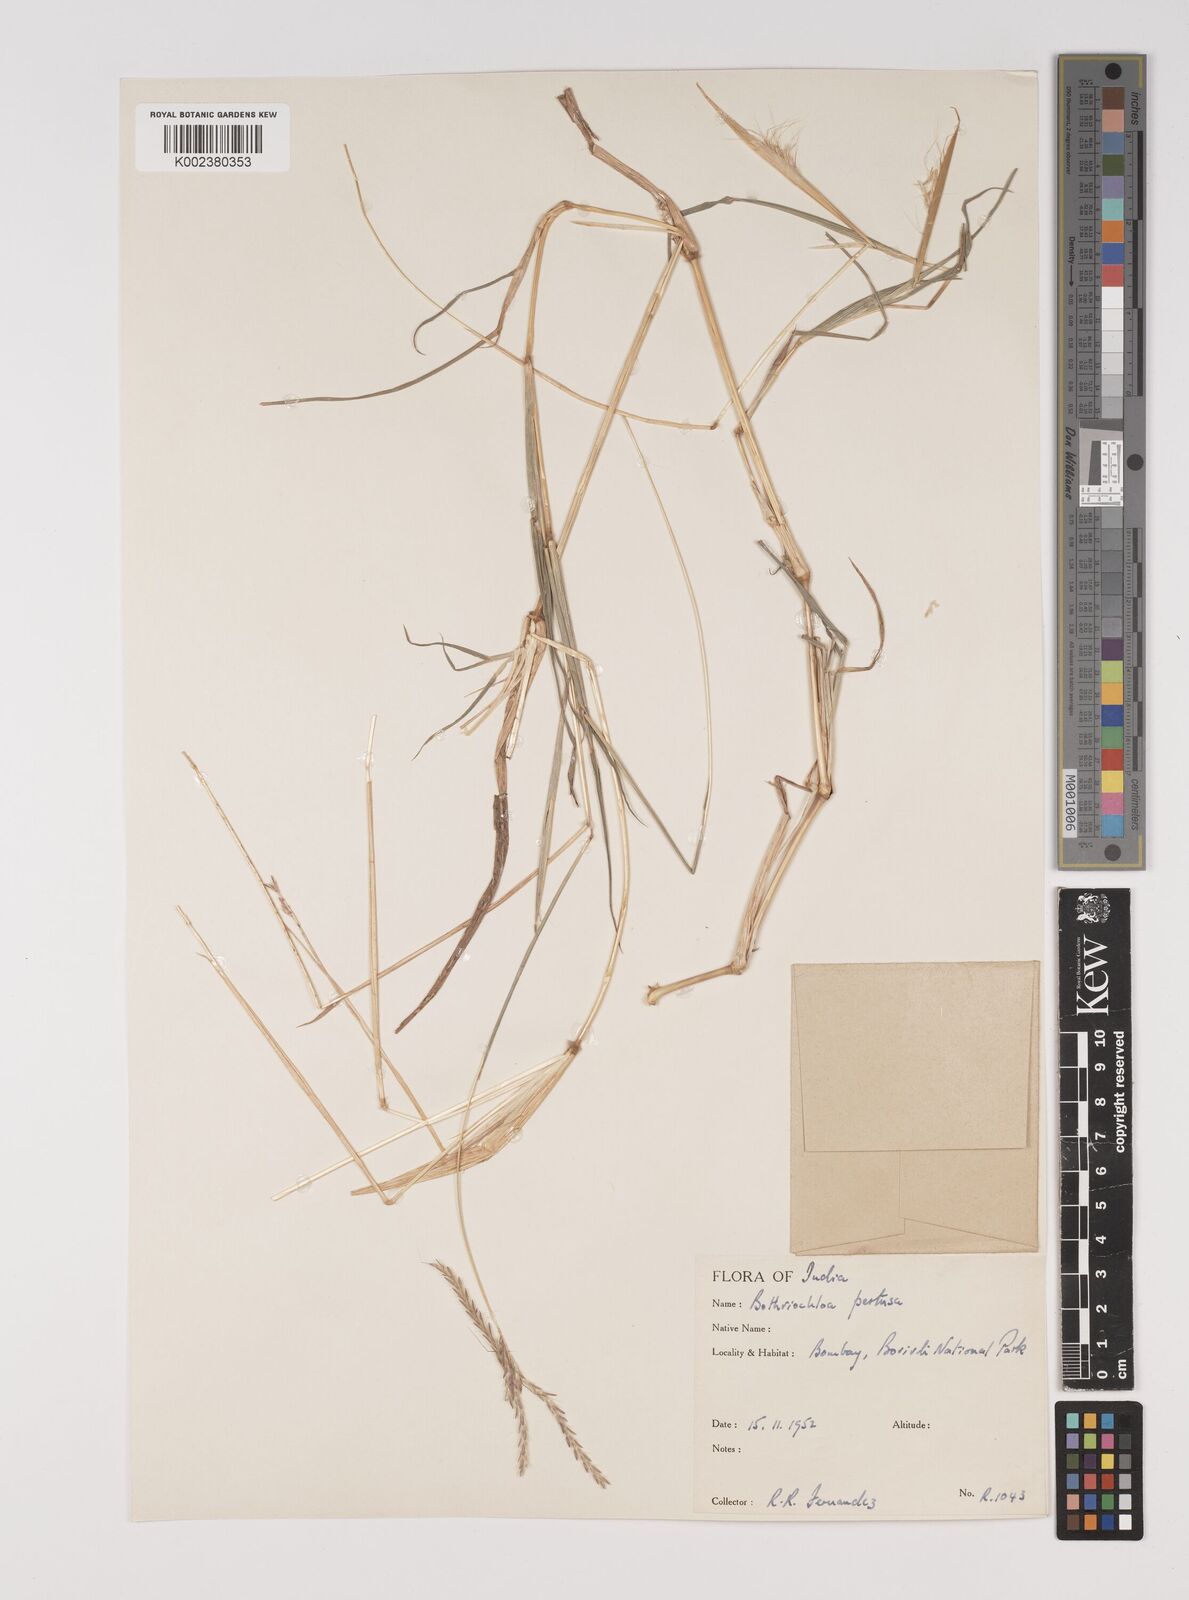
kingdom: Plantae
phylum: Tracheophyta
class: Liliopsida
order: Poales
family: Poaceae
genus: Bothriochloa
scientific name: Bothriochloa pertusa
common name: Pitted beardgrass
